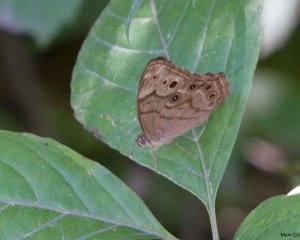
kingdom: Animalia
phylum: Arthropoda
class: Insecta
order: Lepidoptera
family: Nymphalidae
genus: Lethe
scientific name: Lethe anthedon
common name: Northern Pearly-Eye
